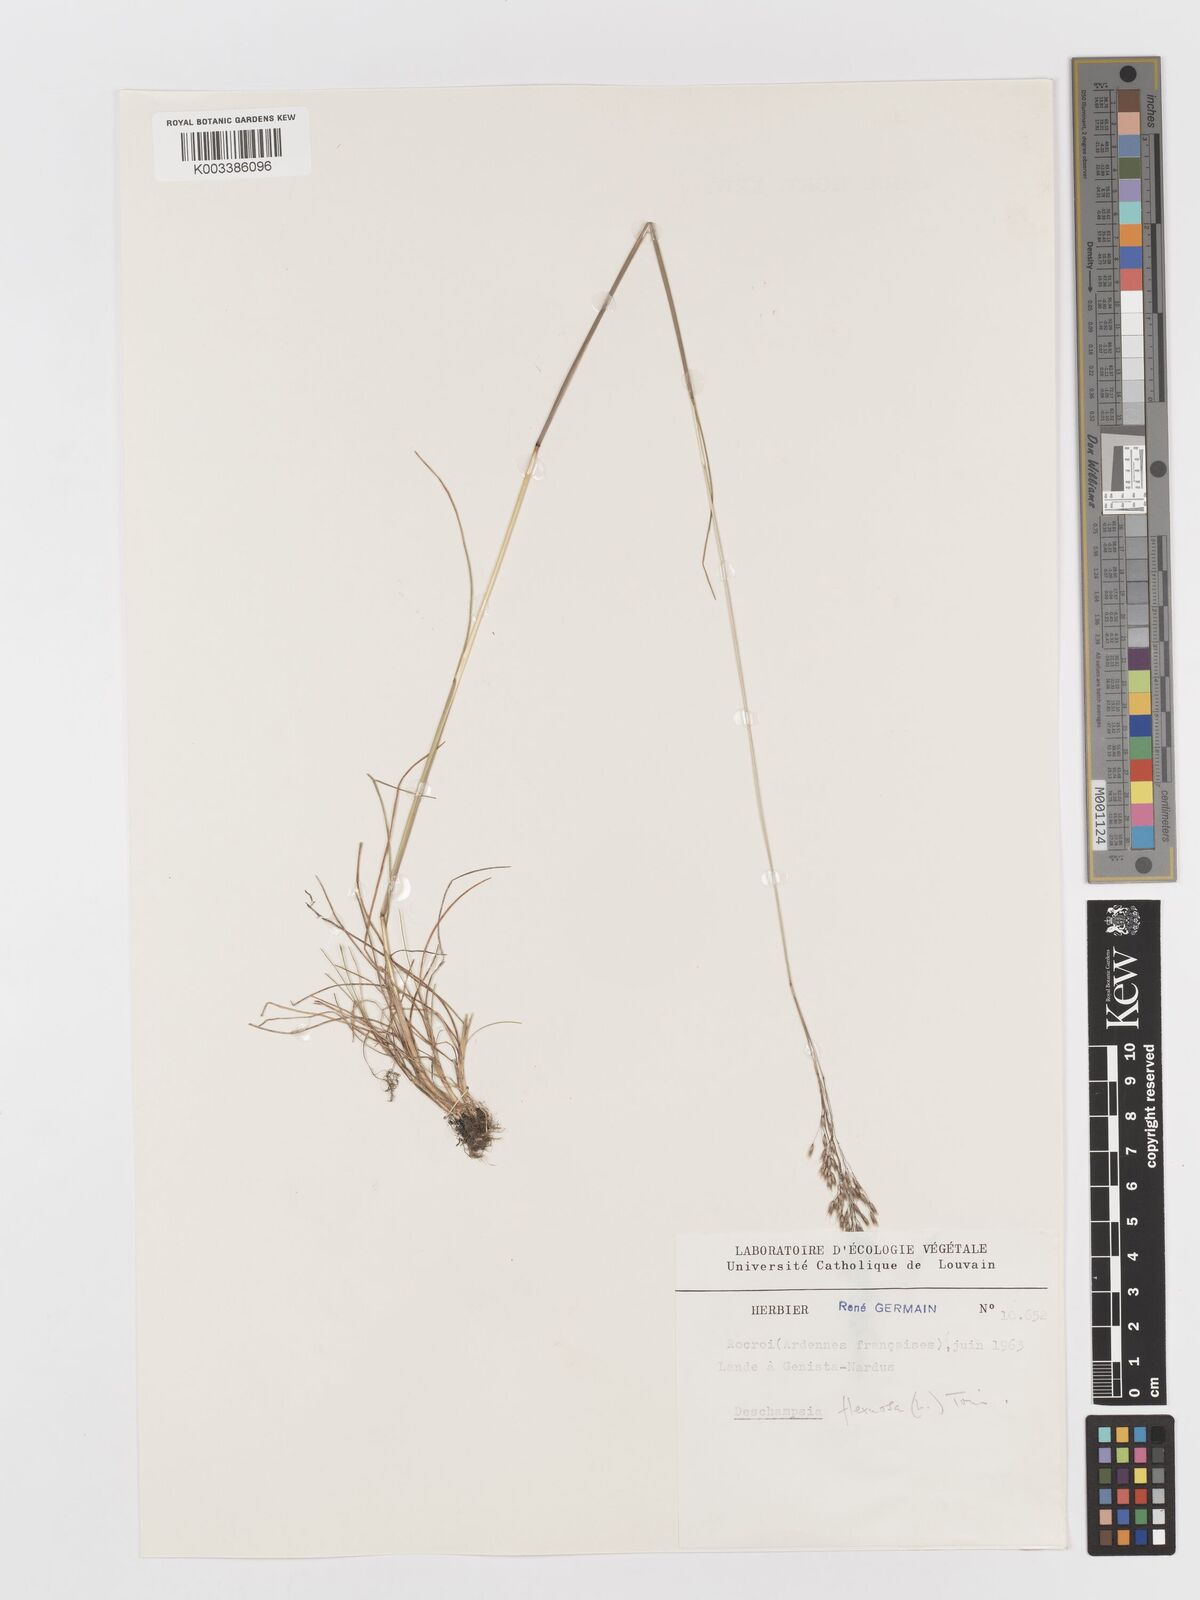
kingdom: Plantae
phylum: Tracheophyta
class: Liliopsida
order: Poales
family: Poaceae
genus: Avenella
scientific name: Avenella flexuosa
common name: Wavy hairgrass
